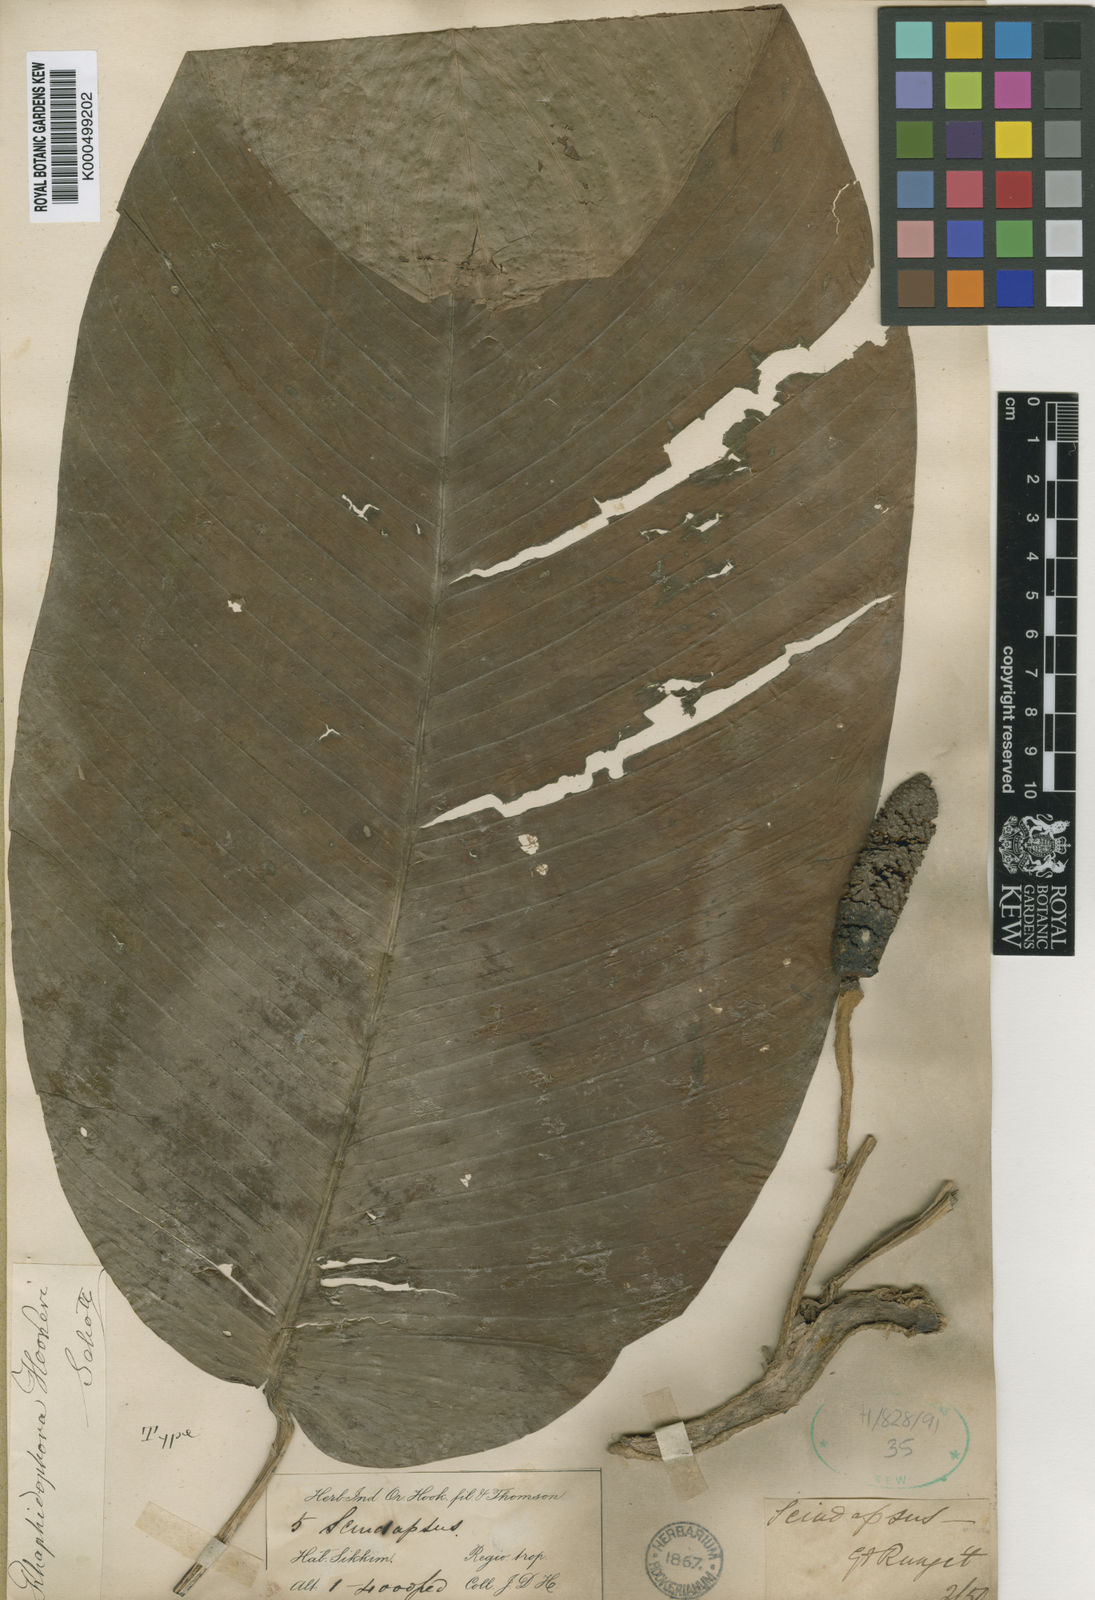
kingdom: Plantae
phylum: Tracheophyta
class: Liliopsida
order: Alismatales
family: Araceae
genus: Rhaphidophora
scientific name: Rhaphidophora hookeri
